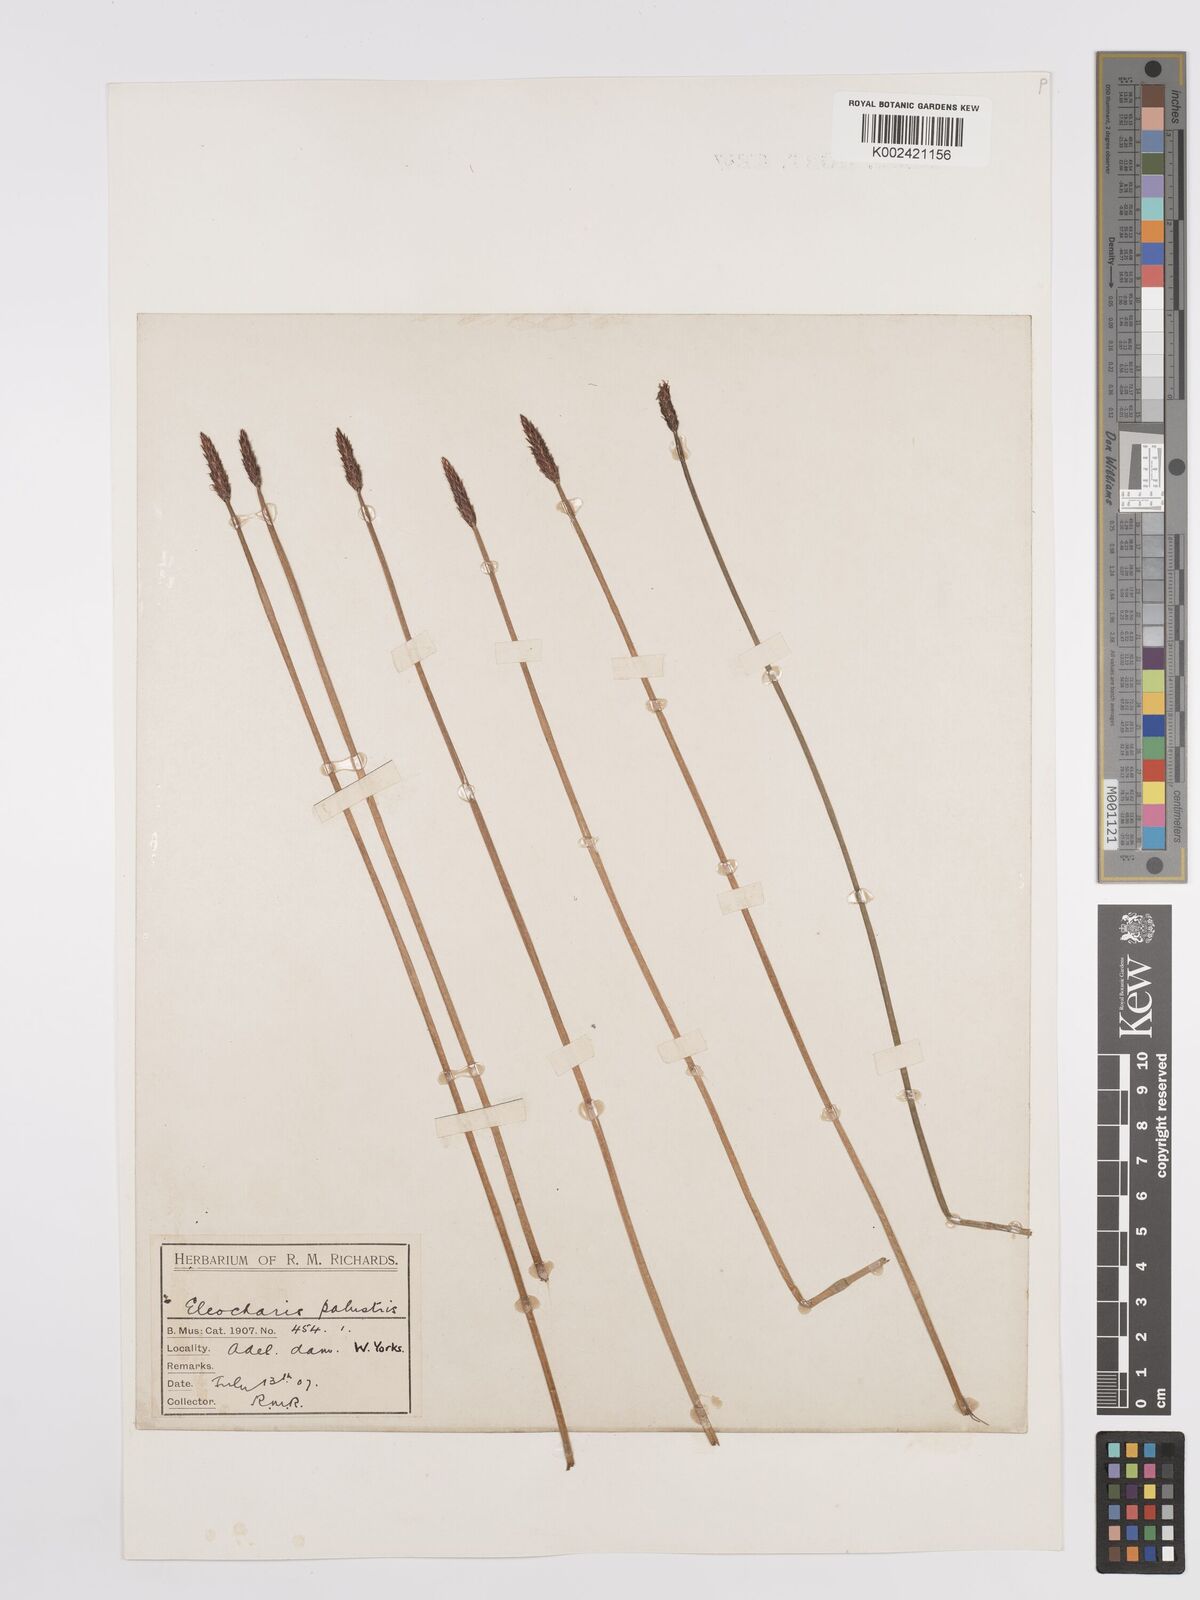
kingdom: Plantae
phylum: Tracheophyta
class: Liliopsida
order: Poales
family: Cyperaceae
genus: Eleocharis
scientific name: Eleocharis palustris
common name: Common spike-rush
